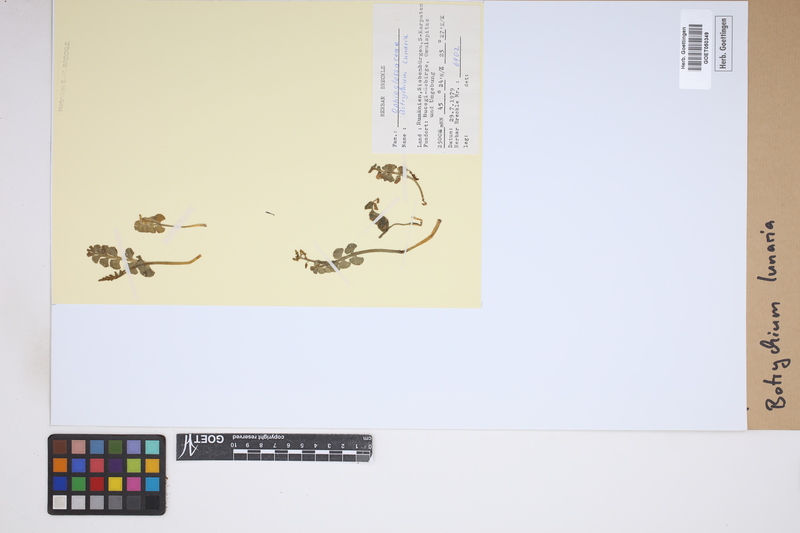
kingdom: Plantae
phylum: Tracheophyta
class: Polypodiopsida
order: Ophioglossales
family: Ophioglossaceae
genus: Botrychium
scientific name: Botrychium lunaria
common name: Moonwort
